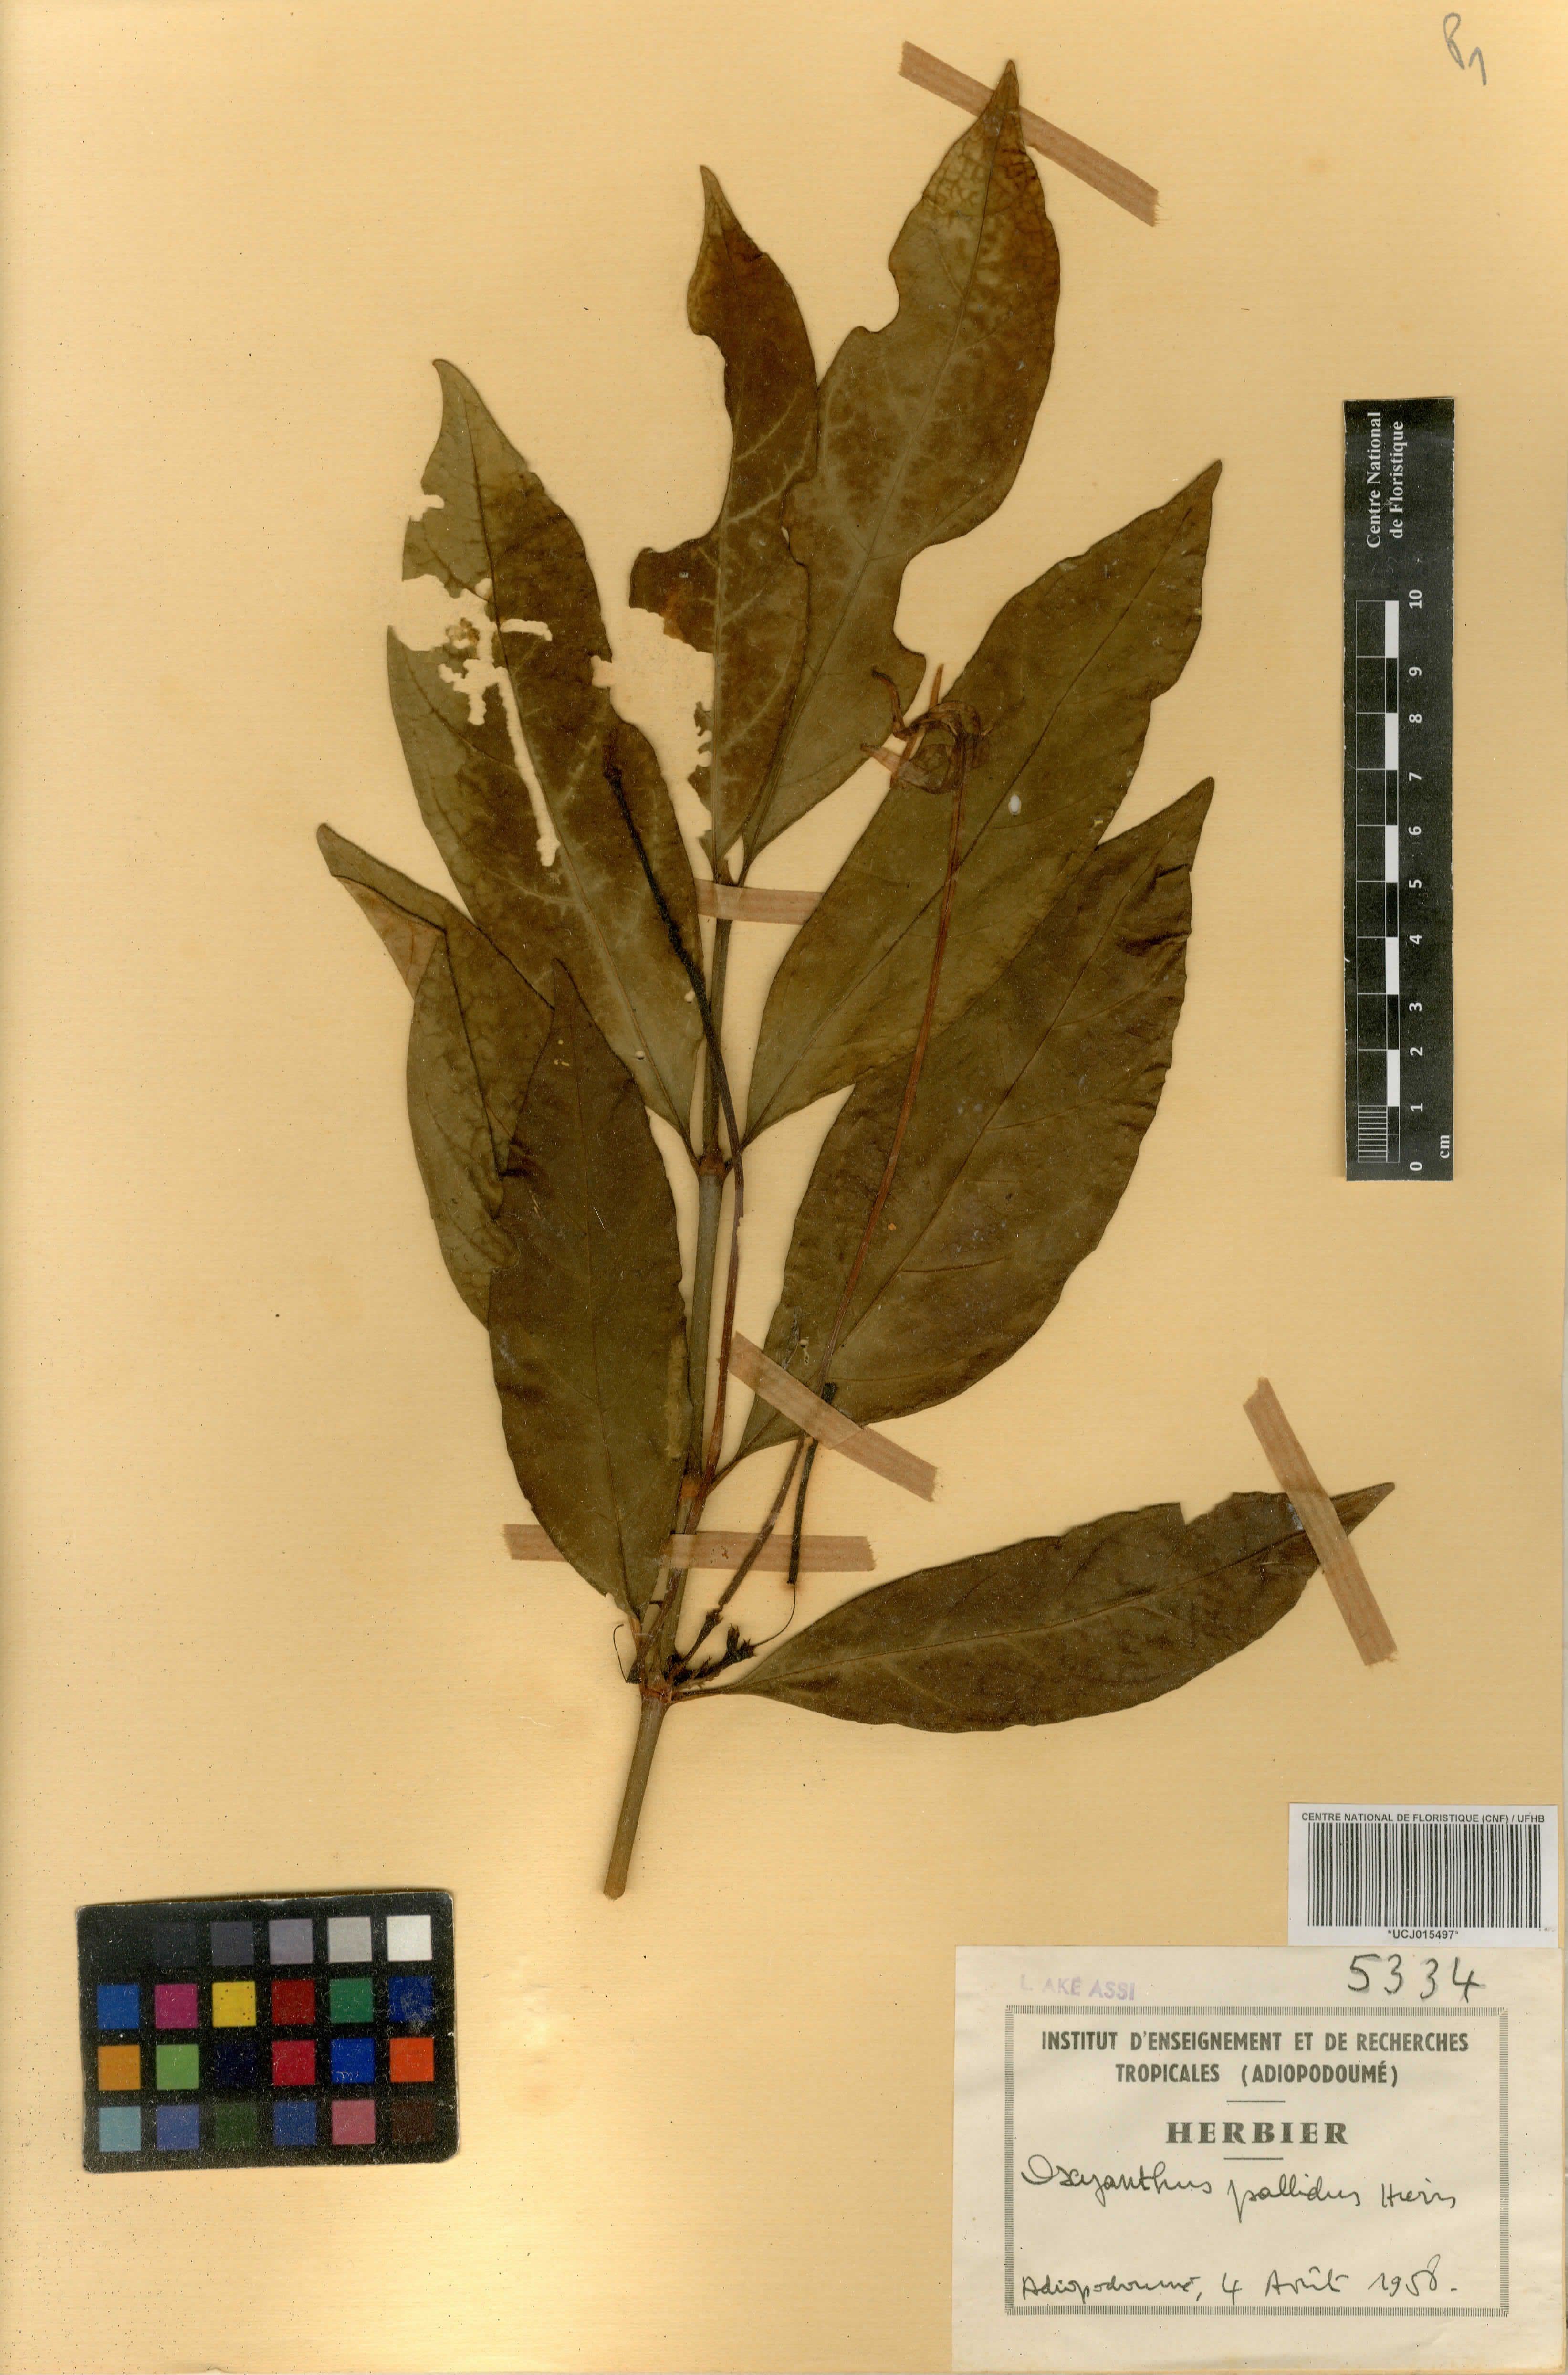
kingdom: Plantae
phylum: Tracheophyta
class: Magnoliopsida
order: Gentianales
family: Rubiaceae
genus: Oxyanthus
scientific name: Oxyanthus pallidus
